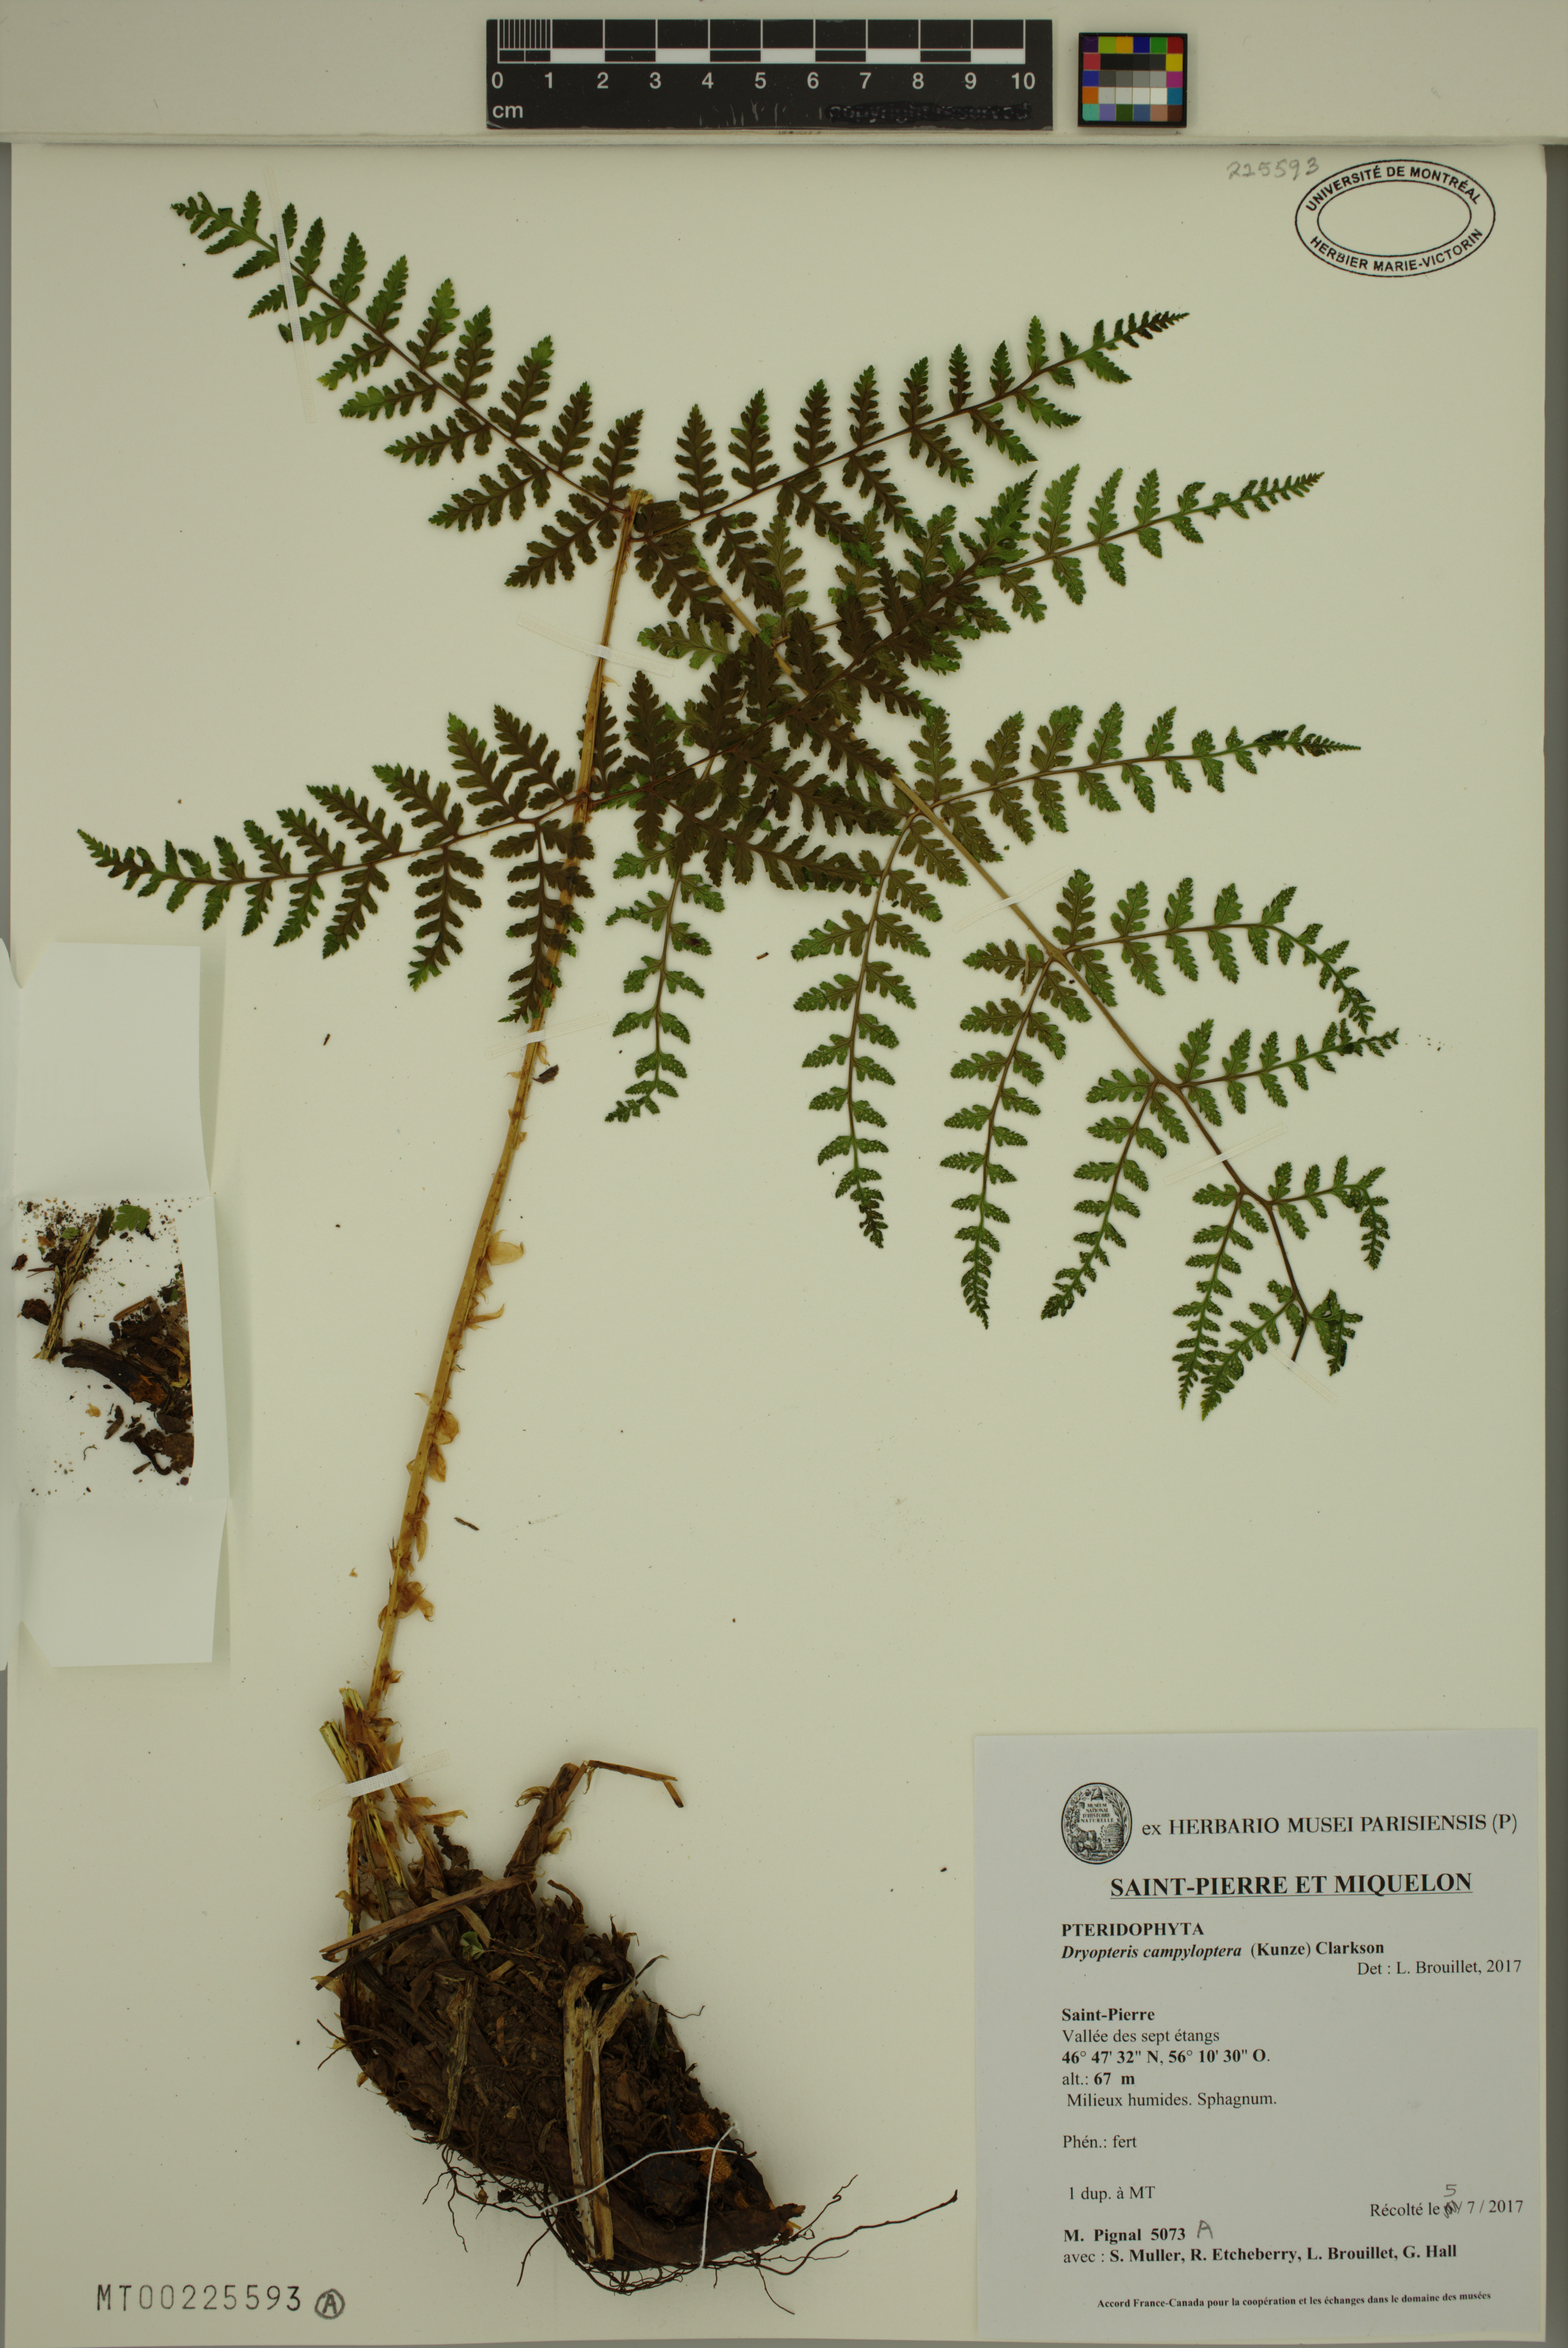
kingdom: Plantae
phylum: Tracheophyta
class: Polypodiopsida
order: Polypodiales
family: Dryopteridaceae
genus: Dryopteris
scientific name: Dryopteris campyloptera
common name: Mountain wood fern
